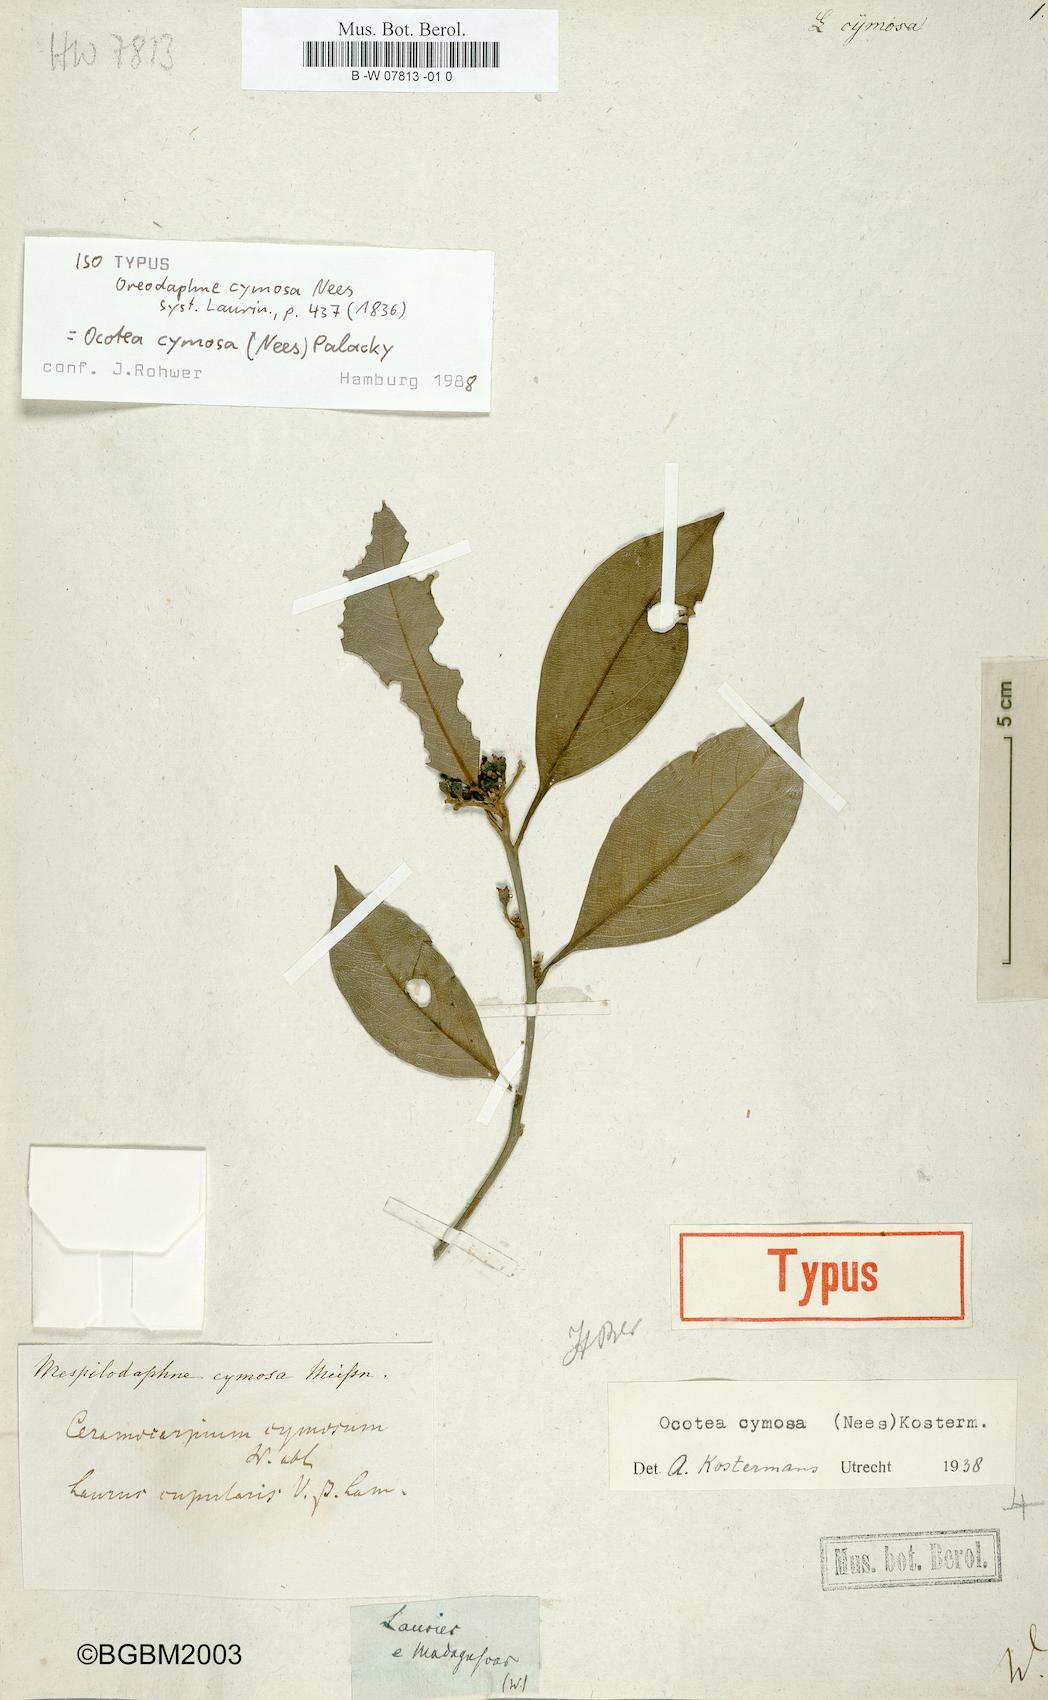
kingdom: Plantae
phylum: Tracheophyta
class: Magnoliopsida
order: Laurales
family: Lauraceae
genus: Mespilodaphne
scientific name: Mespilodaphne cymosa
